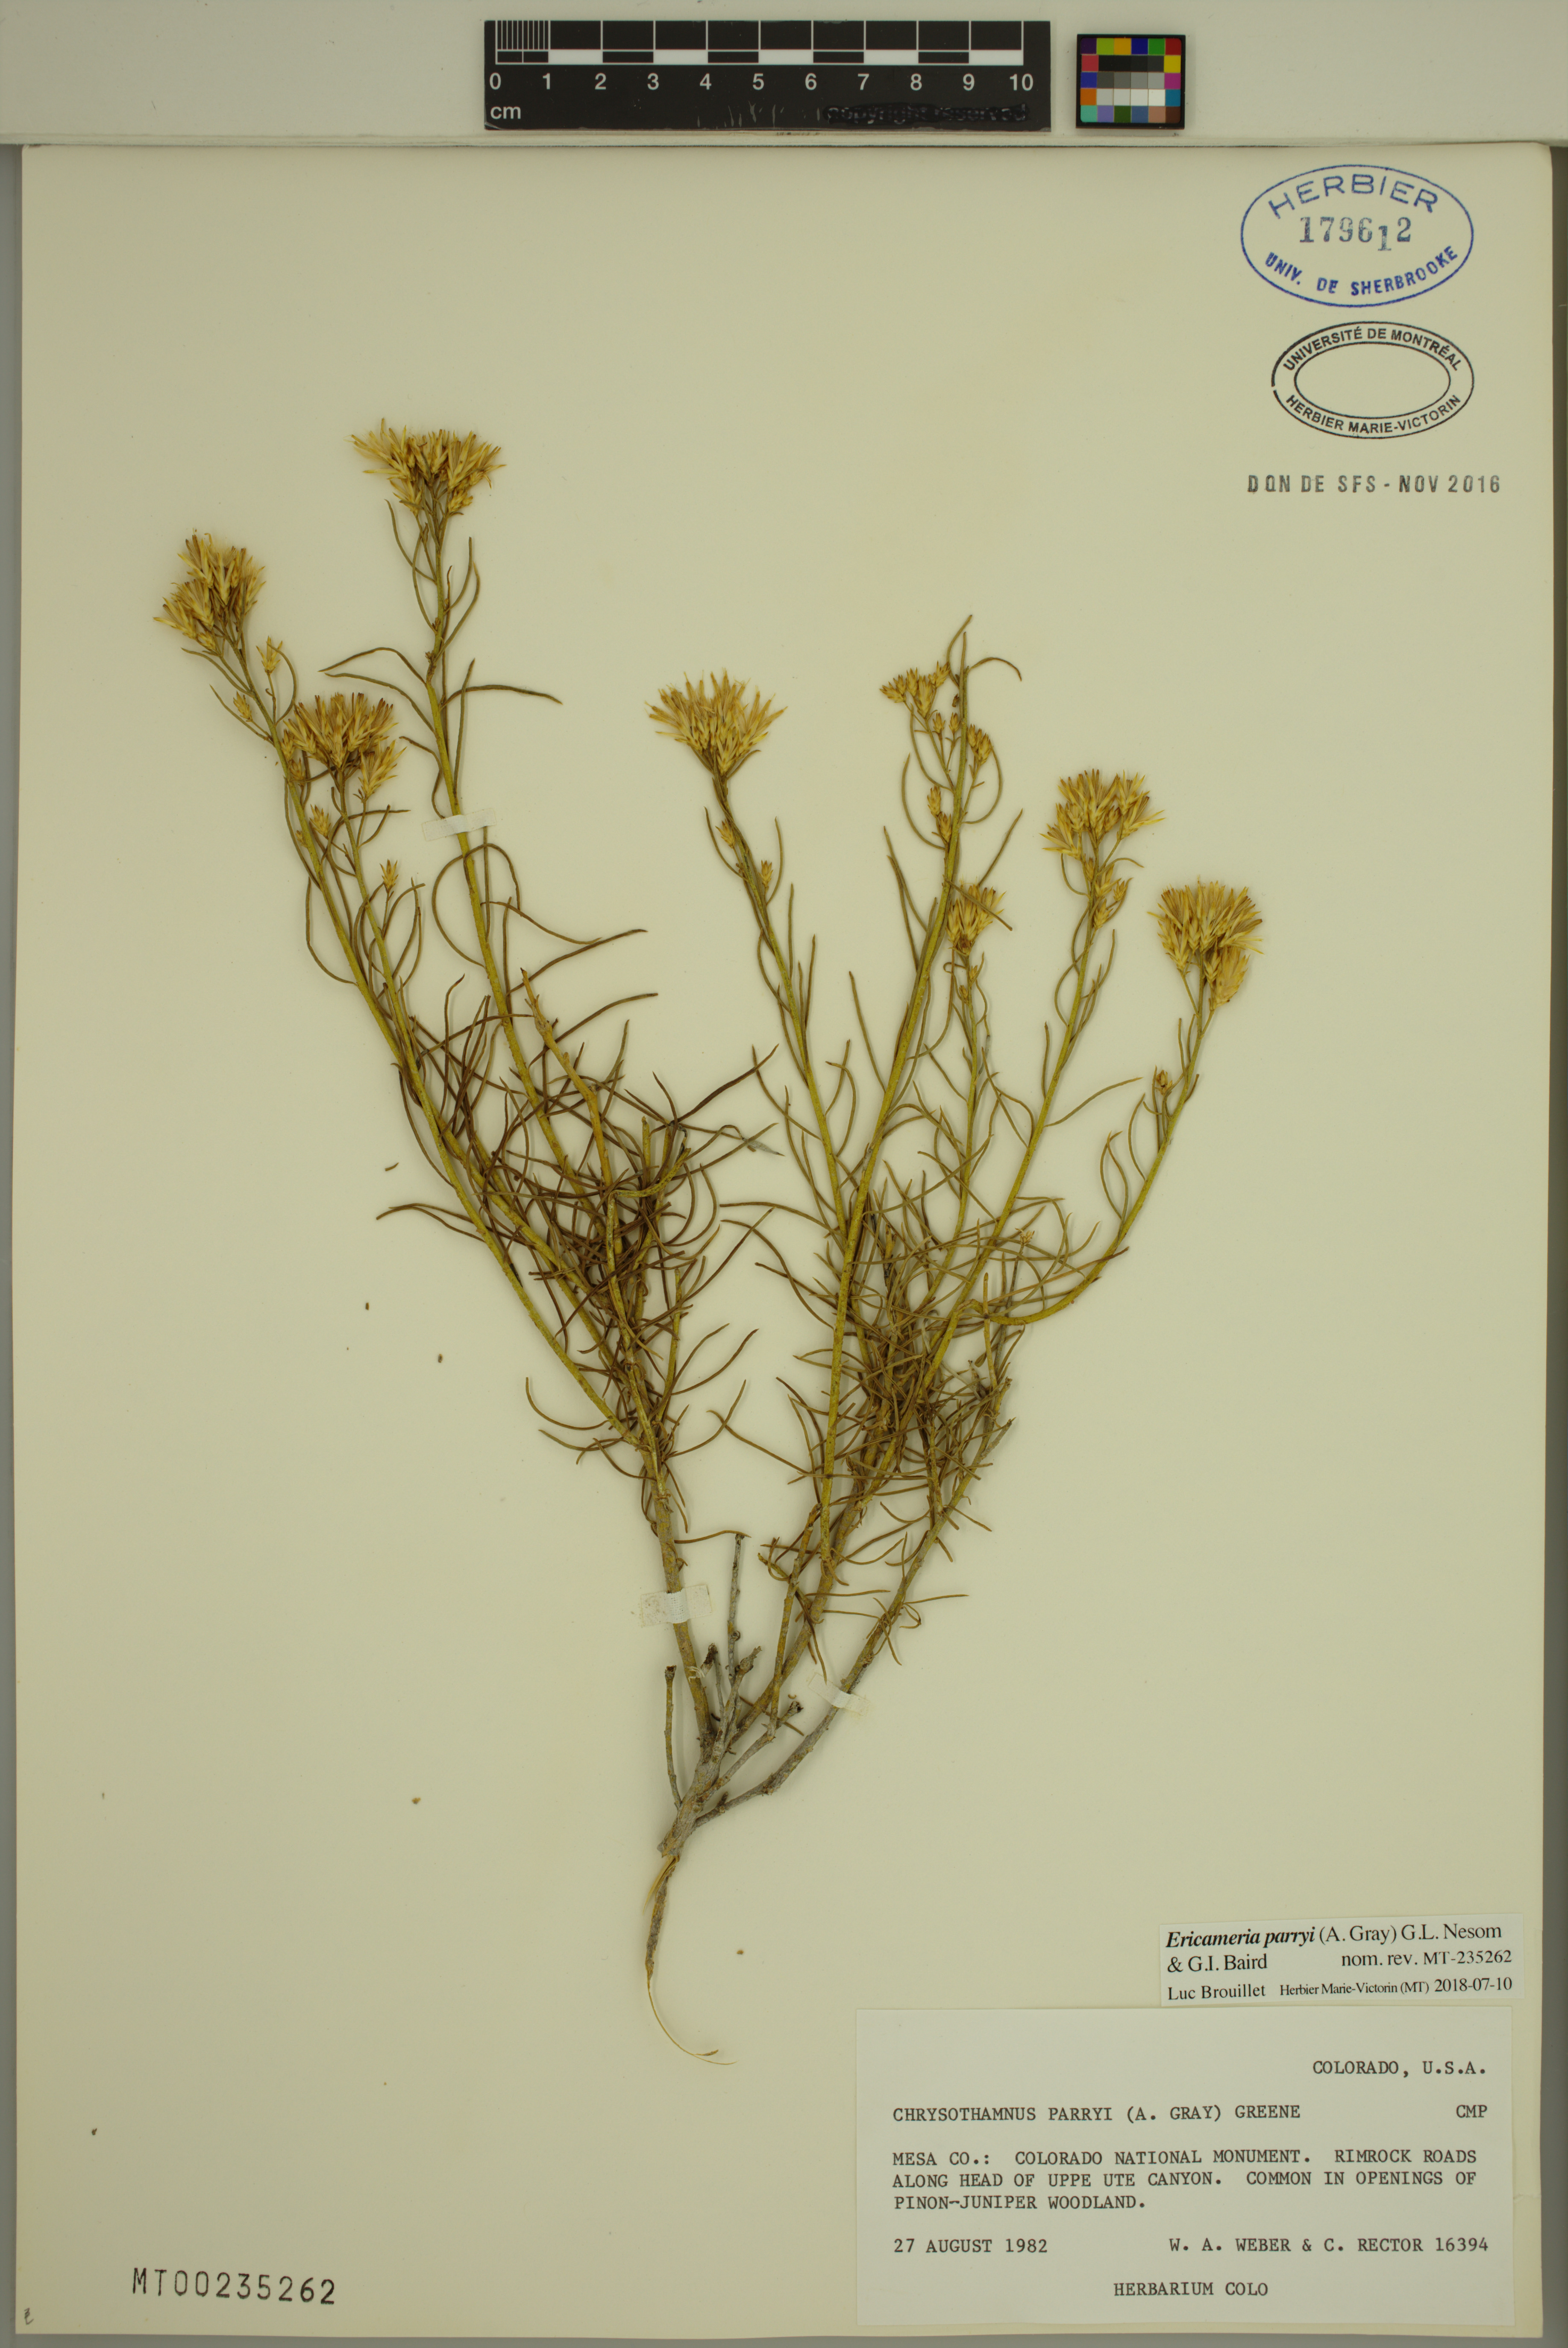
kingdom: Plantae
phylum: Tracheophyta
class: Magnoliopsida
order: Asterales
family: Asteraceae
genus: Ericameria
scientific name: Ericameria nauseosa
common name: Rubber rabbitbrush
